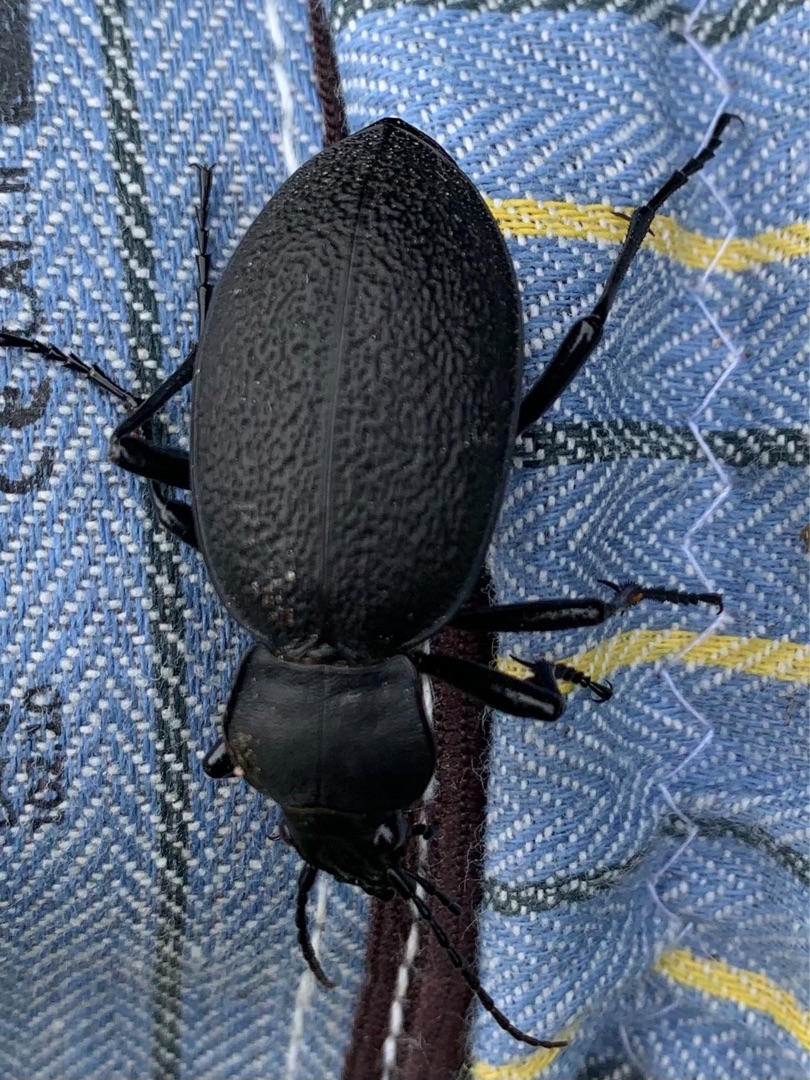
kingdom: Animalia
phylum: Arthropoda
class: Insecta
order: Coleoptera
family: Carabidae
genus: Carabus
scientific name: Carabus coriaceus
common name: Læderløber
